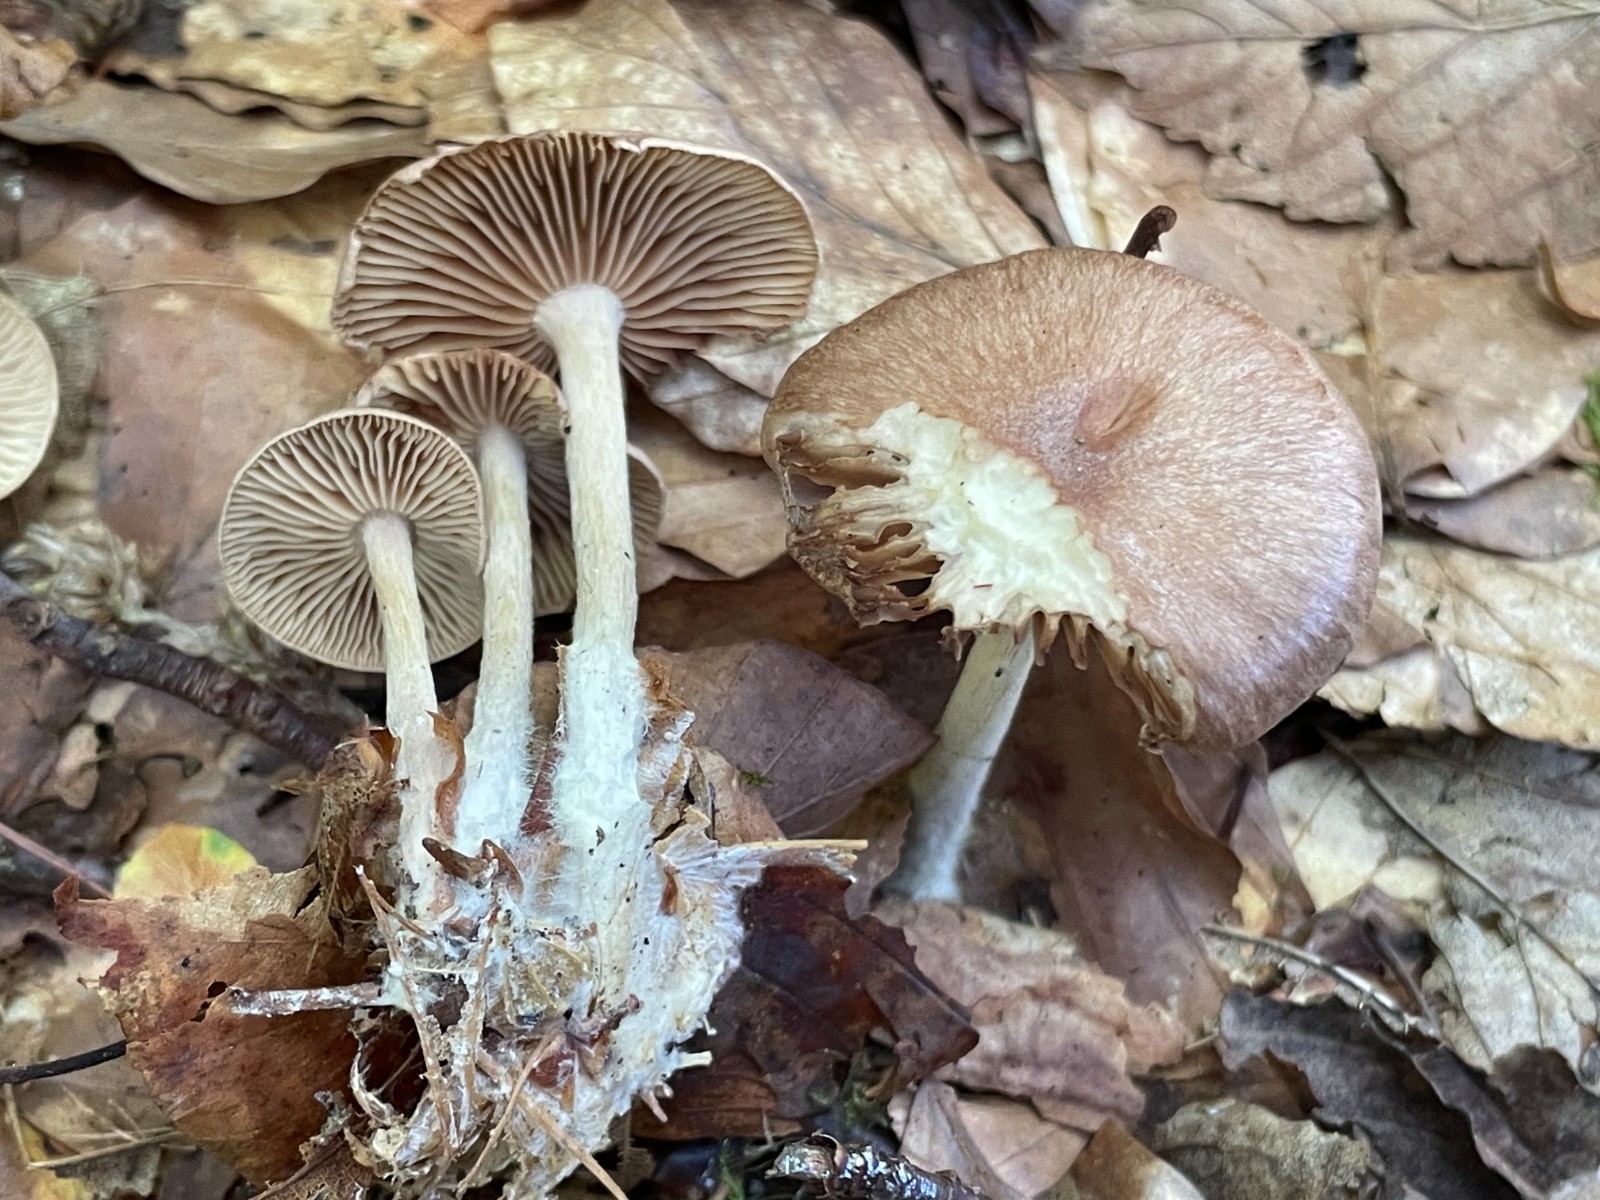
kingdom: Fungi
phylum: Basidiomycota
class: Agaricomycetes
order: Agaricales
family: Omphalotaceae
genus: Collybiopsis
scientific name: Collybiopsis peronata
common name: bestøvlet fladhat
